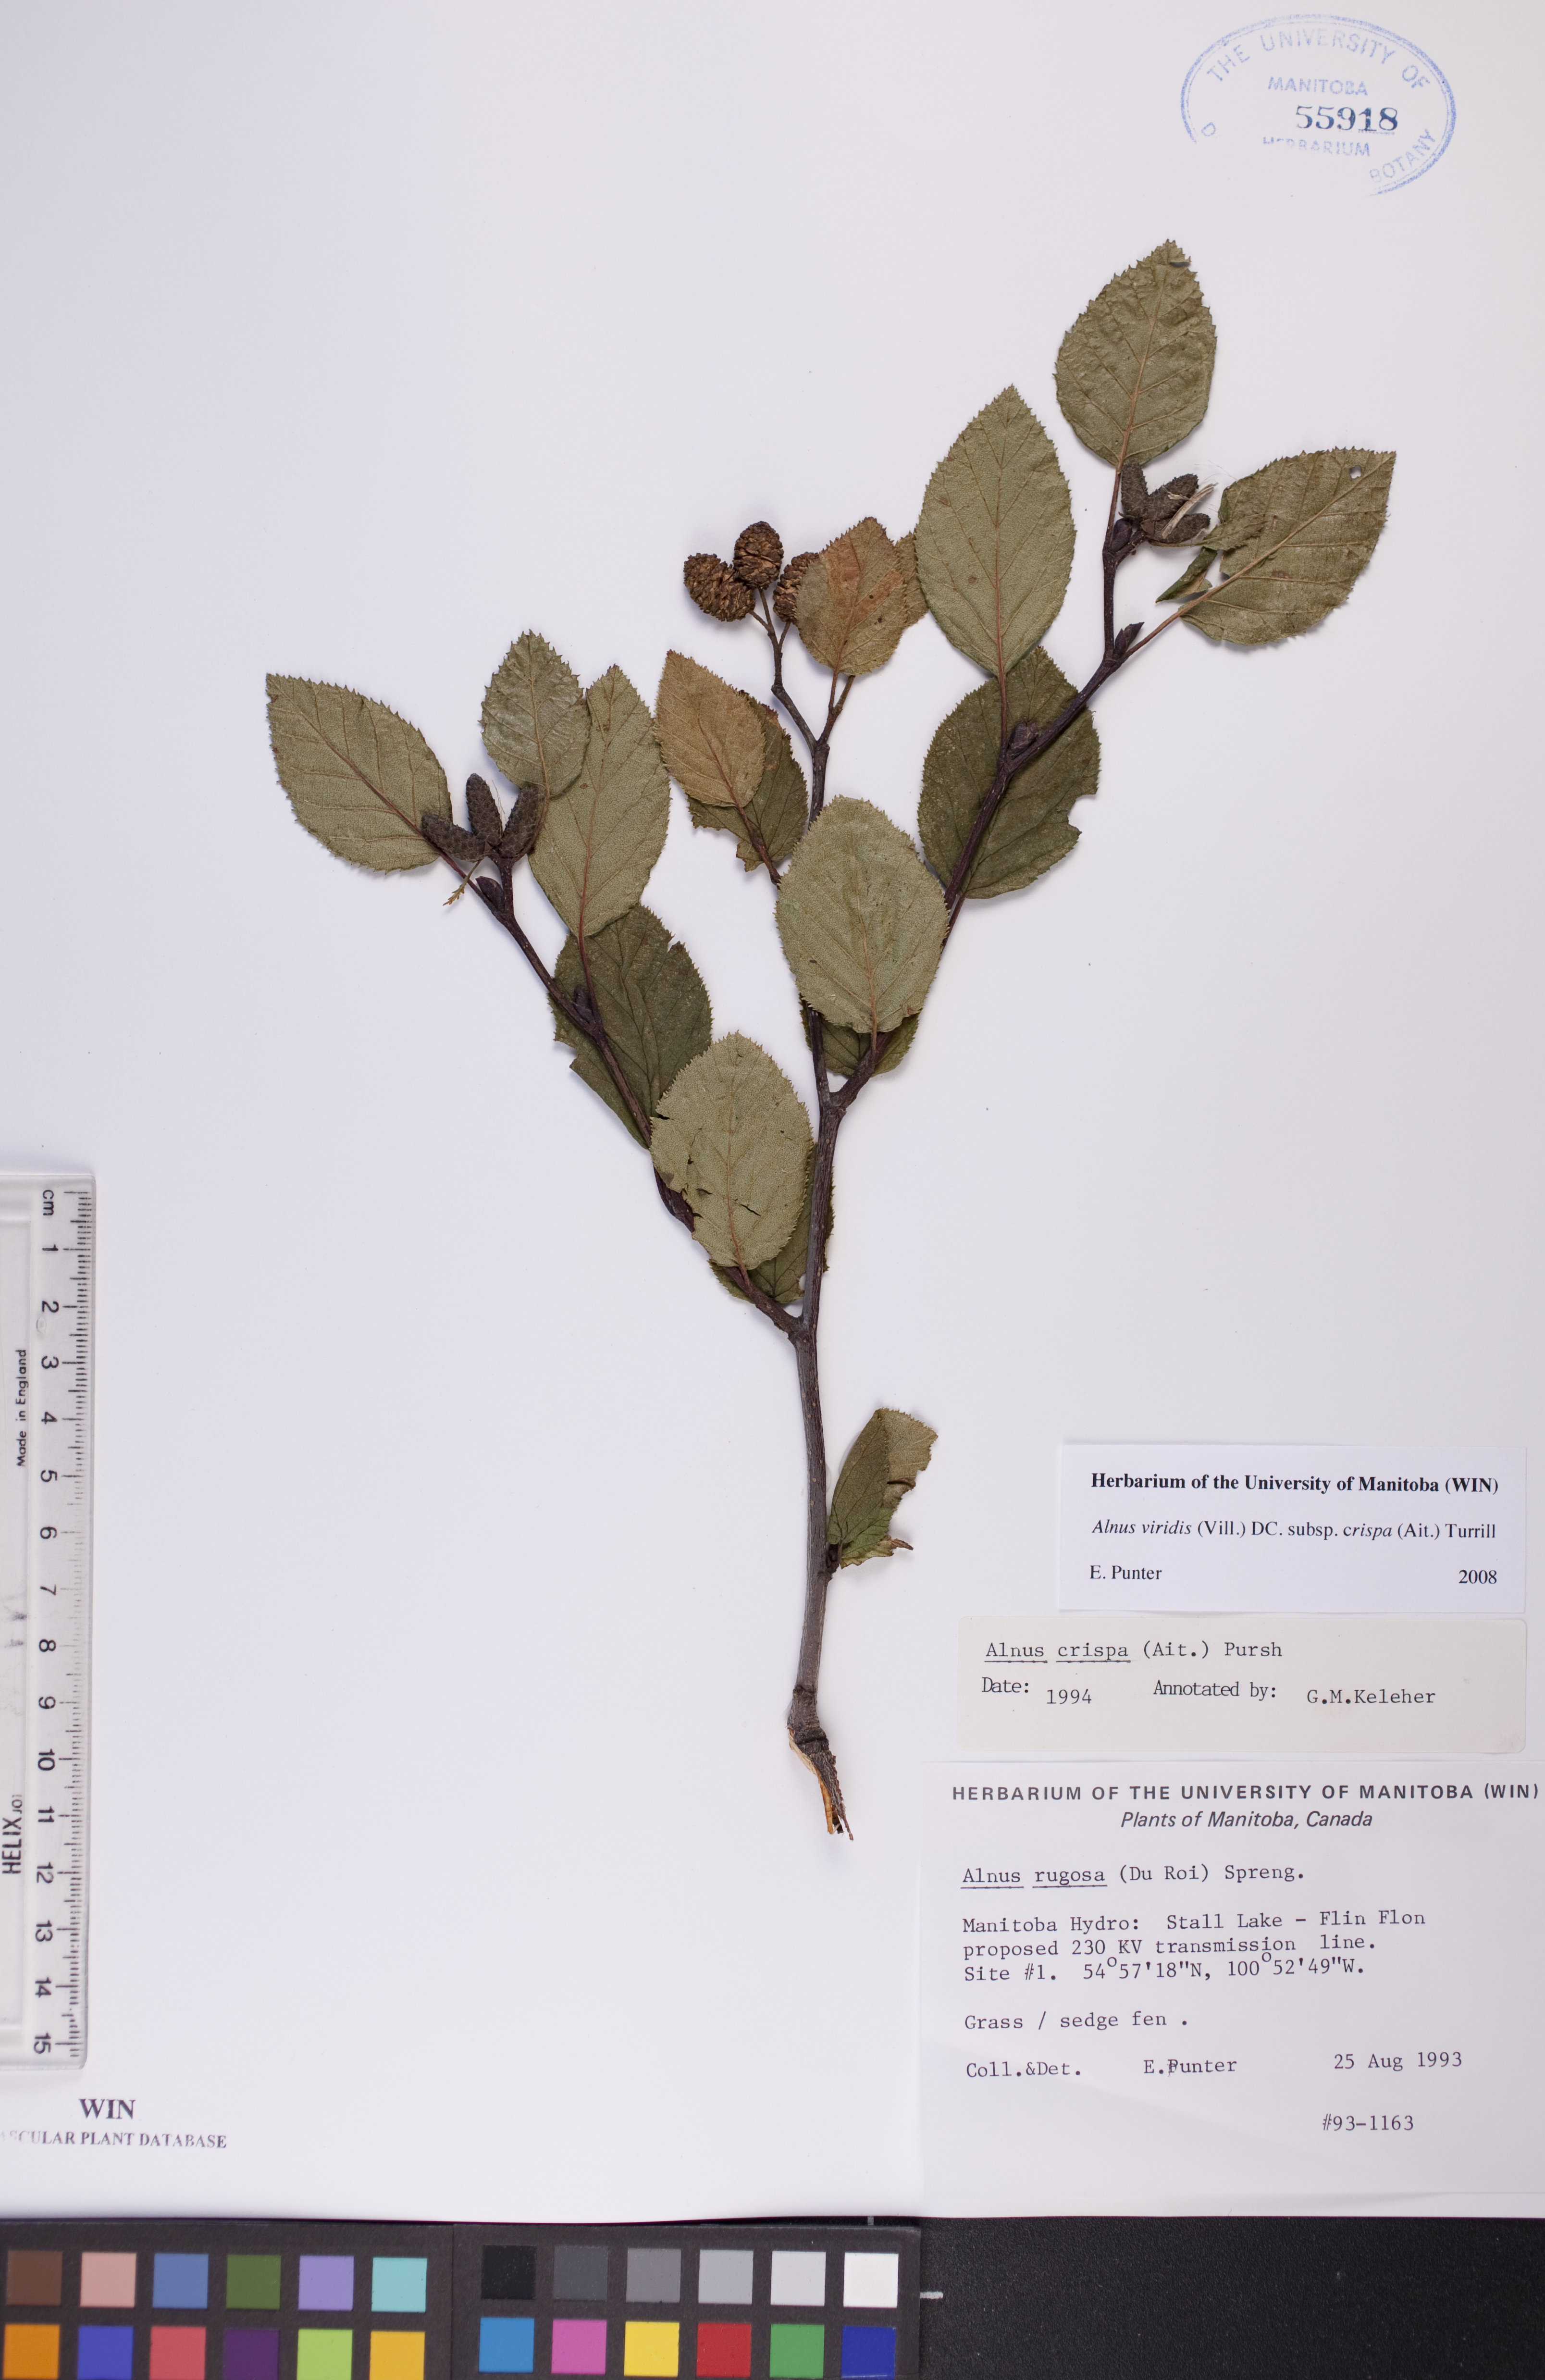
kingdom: Plantae
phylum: Tracheophyta
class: Magnoliopsida
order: Fagales
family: Betulaceae
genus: Alnus
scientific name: Alnus alnobetula
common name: Green alder
